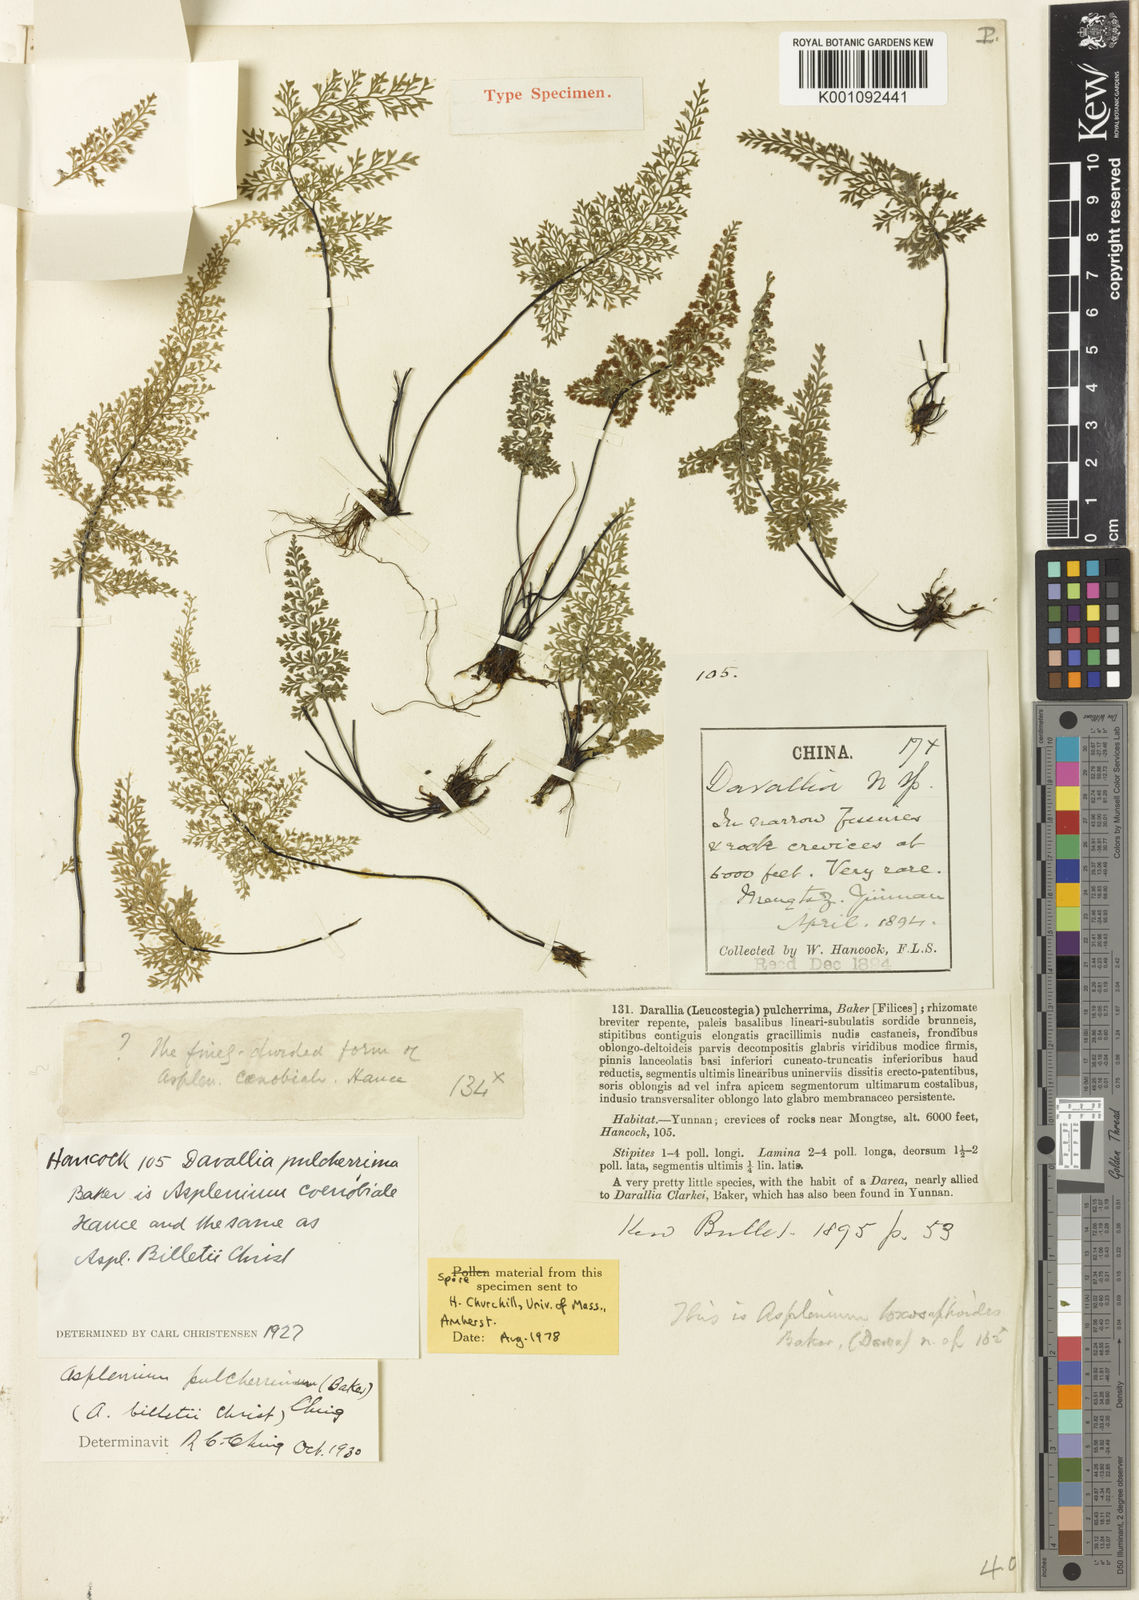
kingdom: Plantae
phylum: Tracheophyta
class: Polypodiopsida
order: Polypodiales
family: Aspleniaceae
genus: Asplenium
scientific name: Asplenium pulcherrimum
